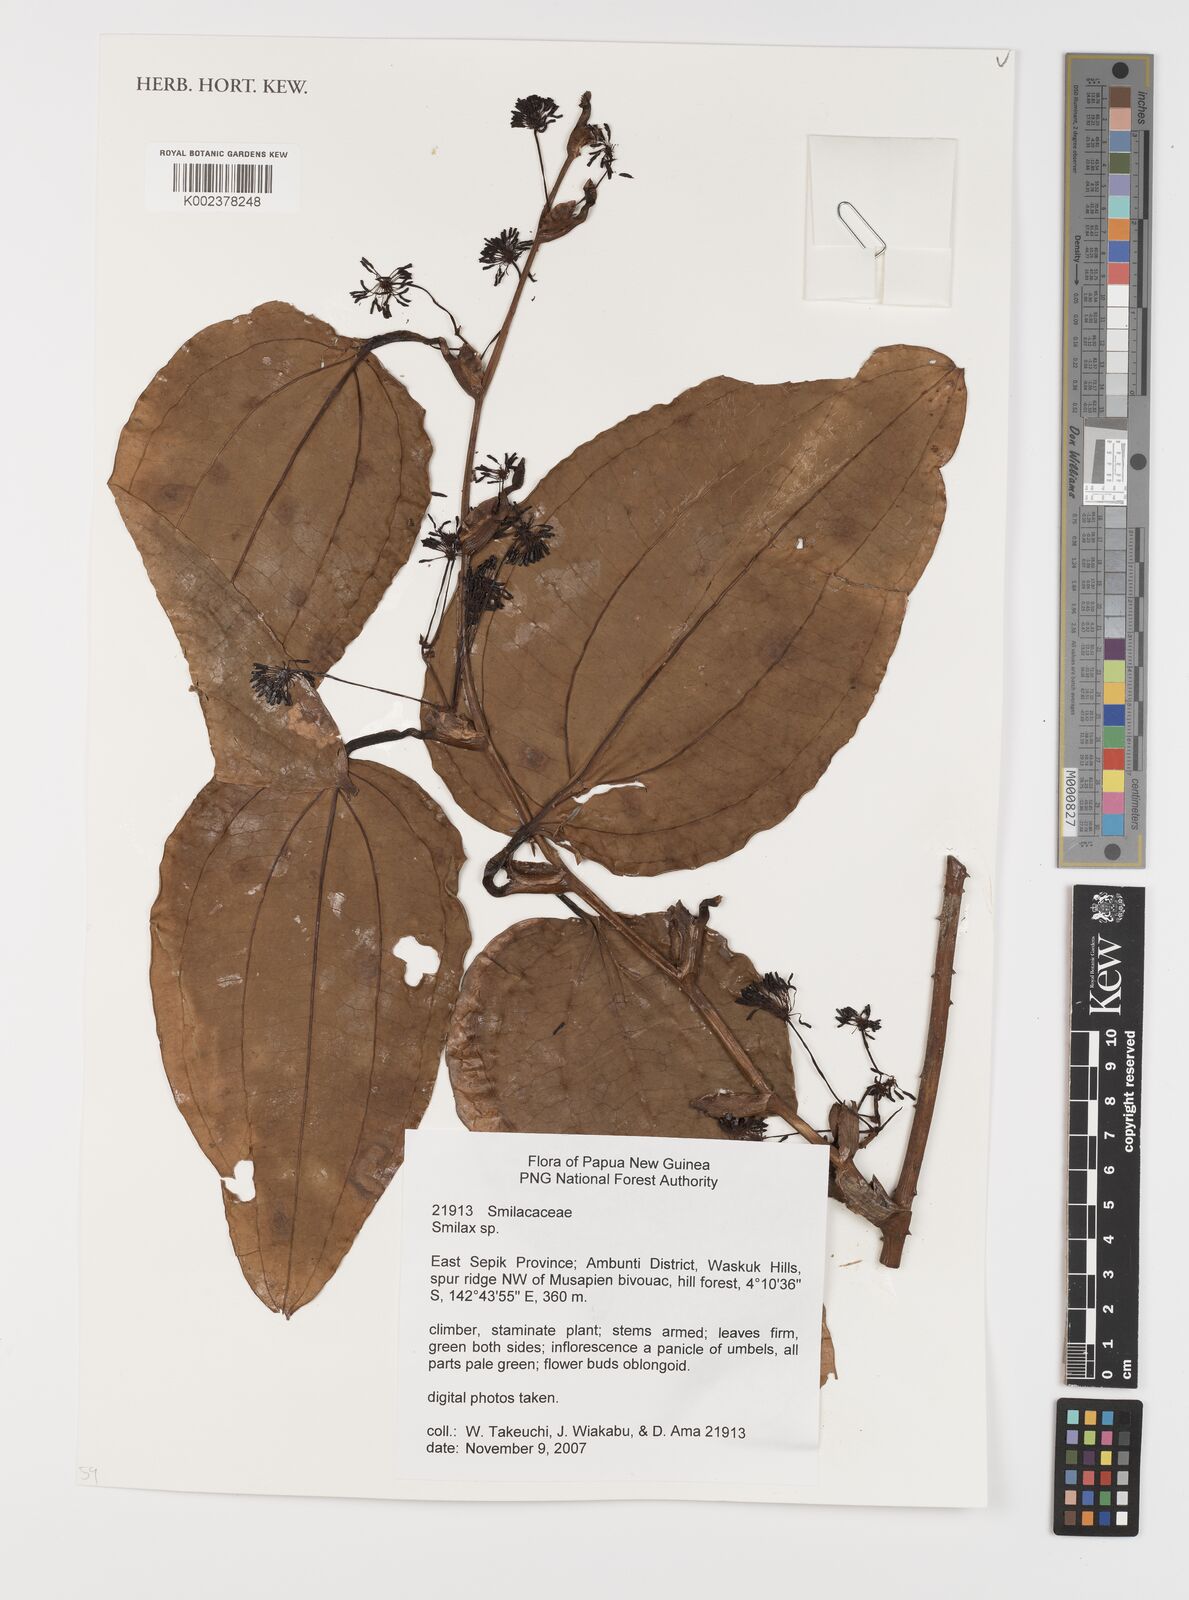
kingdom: Plantae
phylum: Tracheophyta
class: Liliopsida
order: Liliales
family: Smilacaceae
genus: Smilax
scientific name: Smilax
